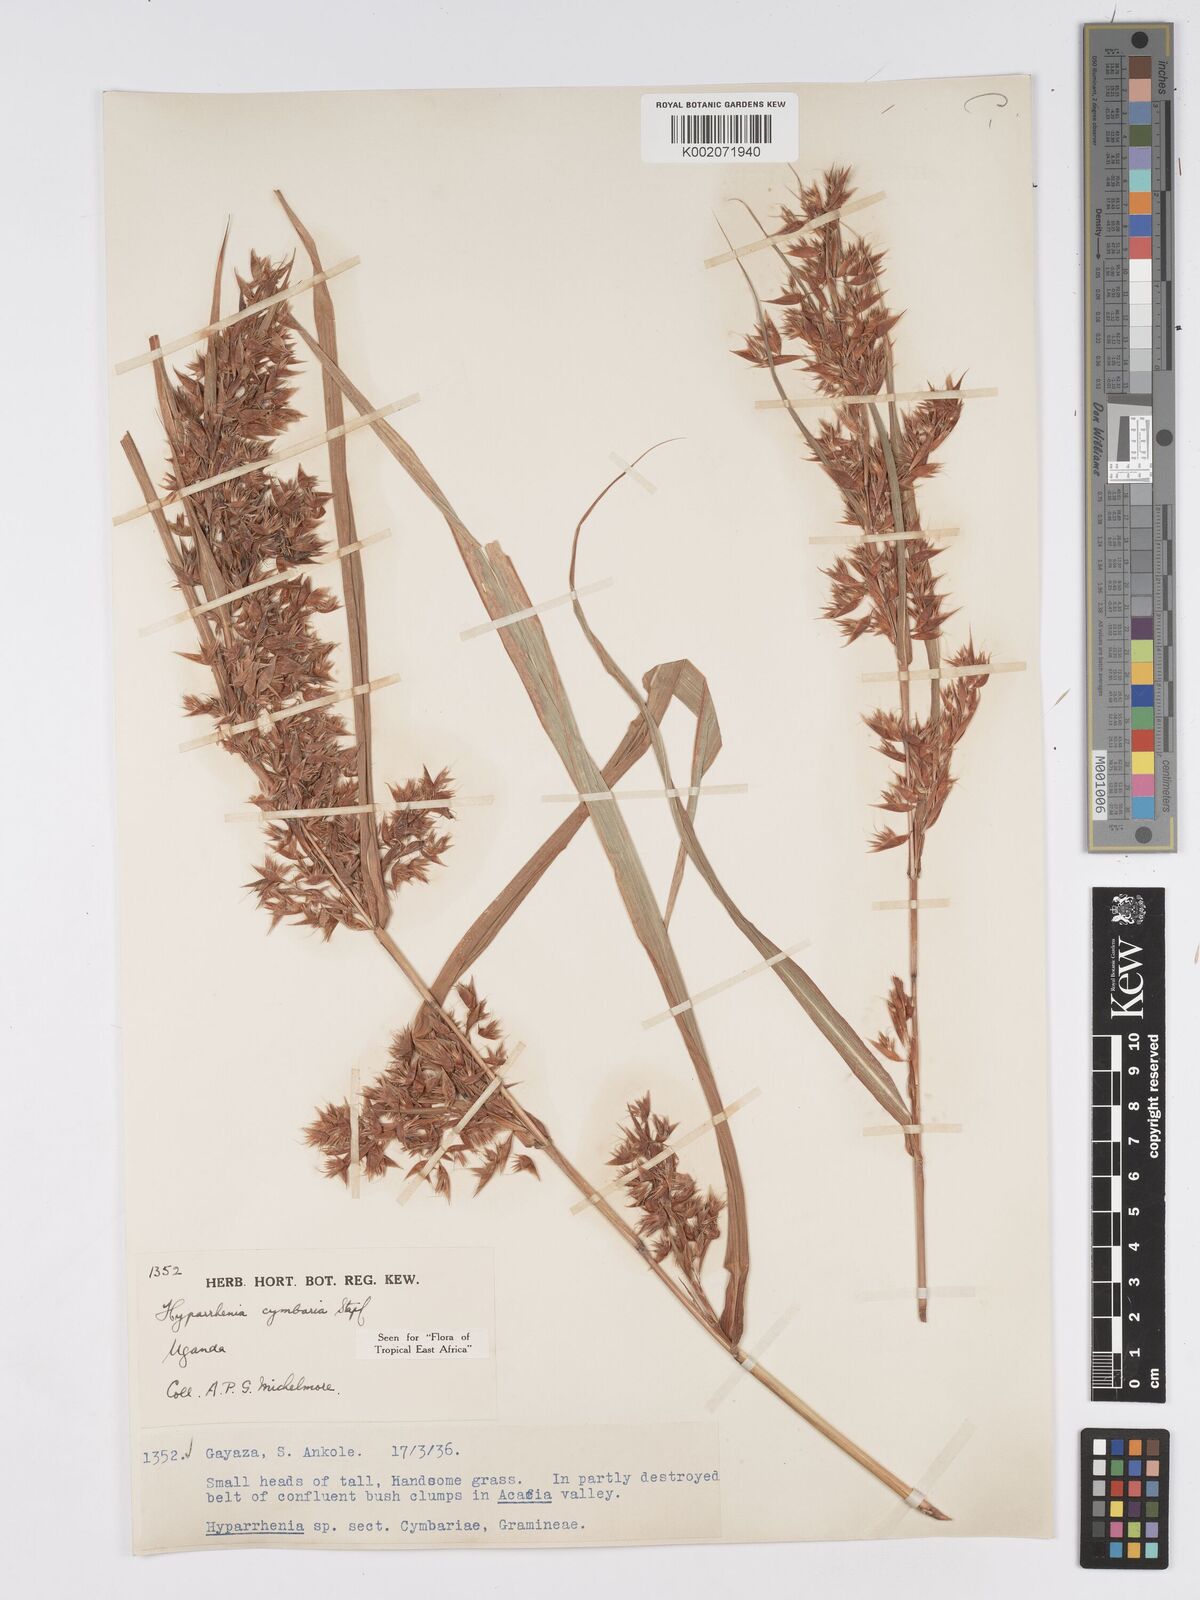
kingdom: Plantae
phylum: Tracheophyta
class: Liliopsida
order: Poales
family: Poaceae
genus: Hyparrhenia
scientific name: Hyparrhenia cymbaria
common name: Boat thatching grass
